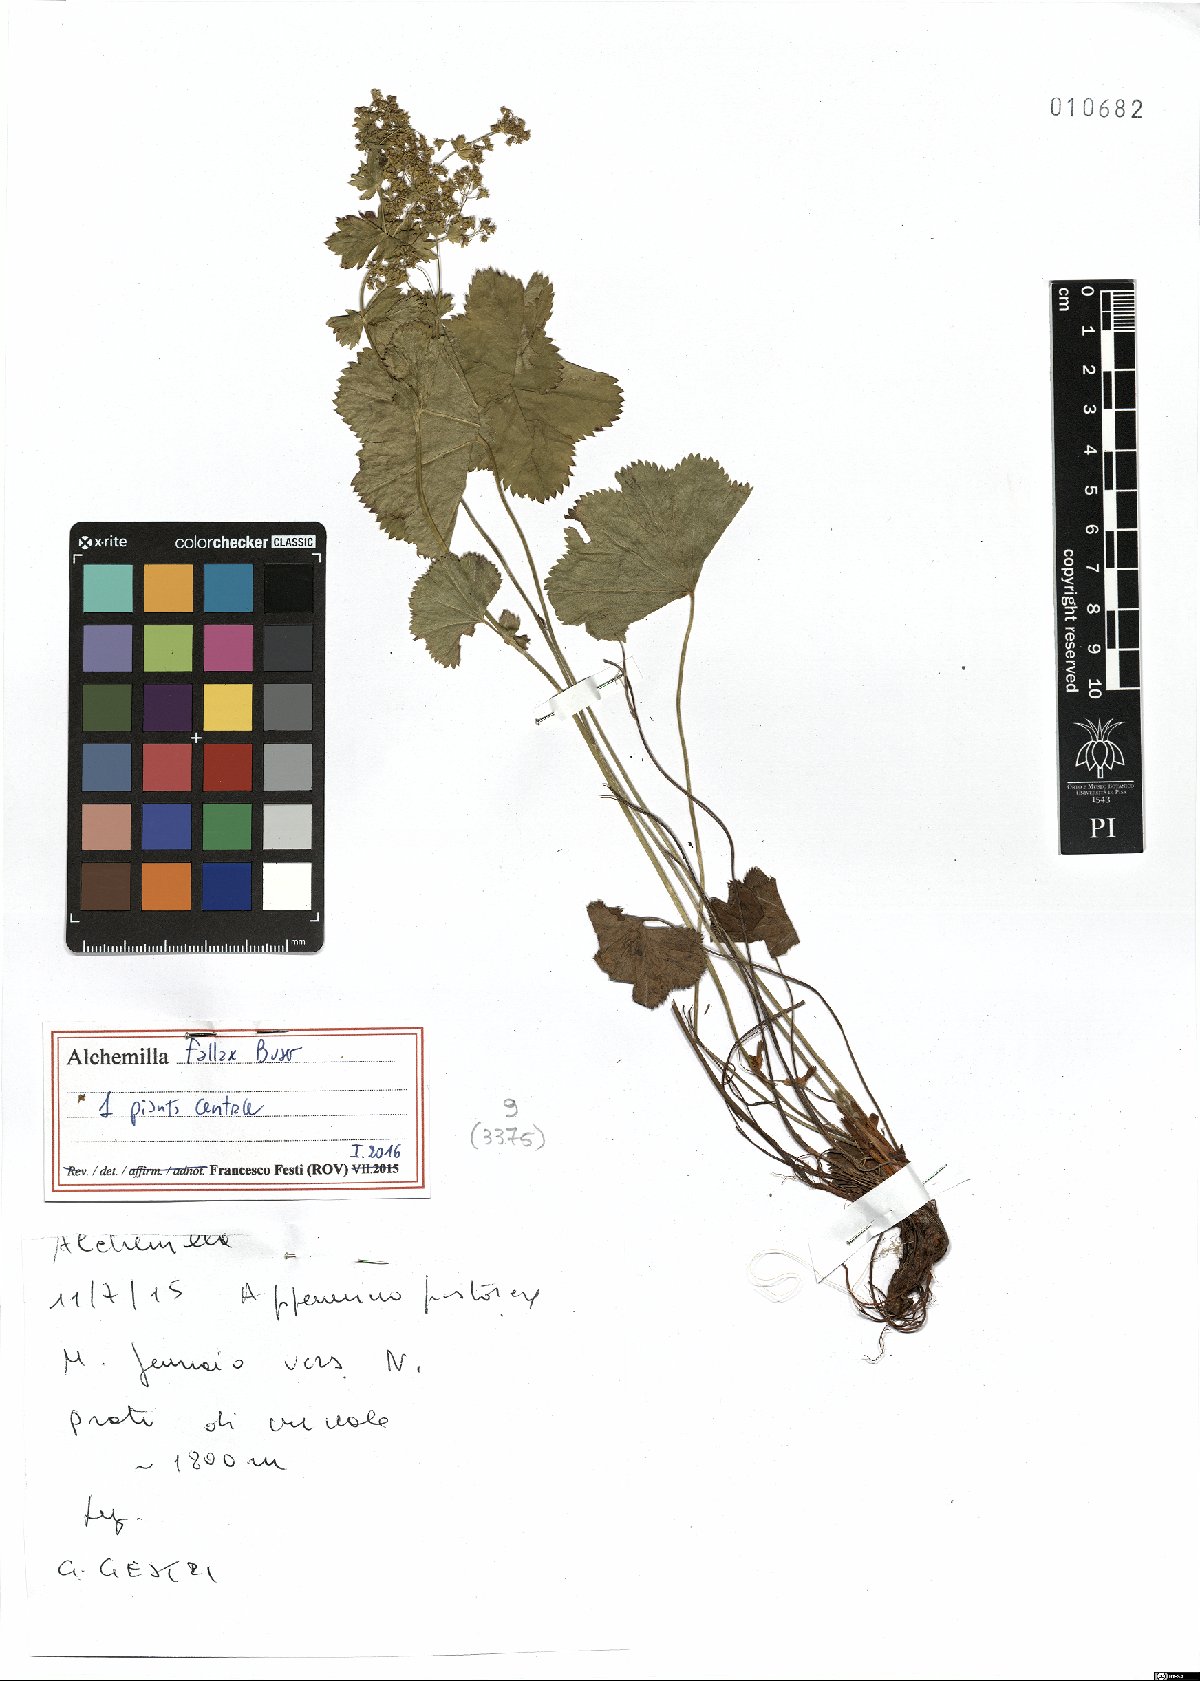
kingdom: Plantae
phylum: Tracheophyta
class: Magnoliopsida
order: Rosales
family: Rosaceae
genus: Alchemilla
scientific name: Alchemilla fallax
